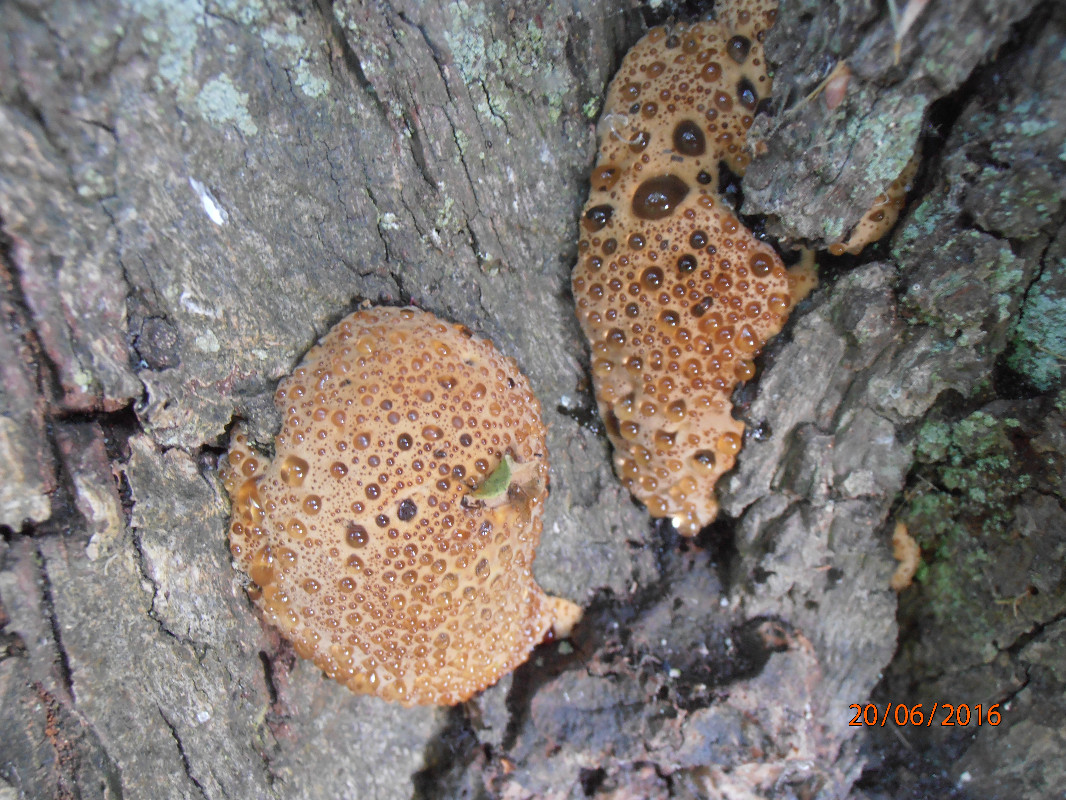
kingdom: Fungi
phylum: Basidiomycota
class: Agaricomycetes
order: Hymenochaetales
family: Hymenochaetaceae
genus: Pseudoinonotus
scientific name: Pseudoinonotus dryadeus
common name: ege-spejlporesvamp
